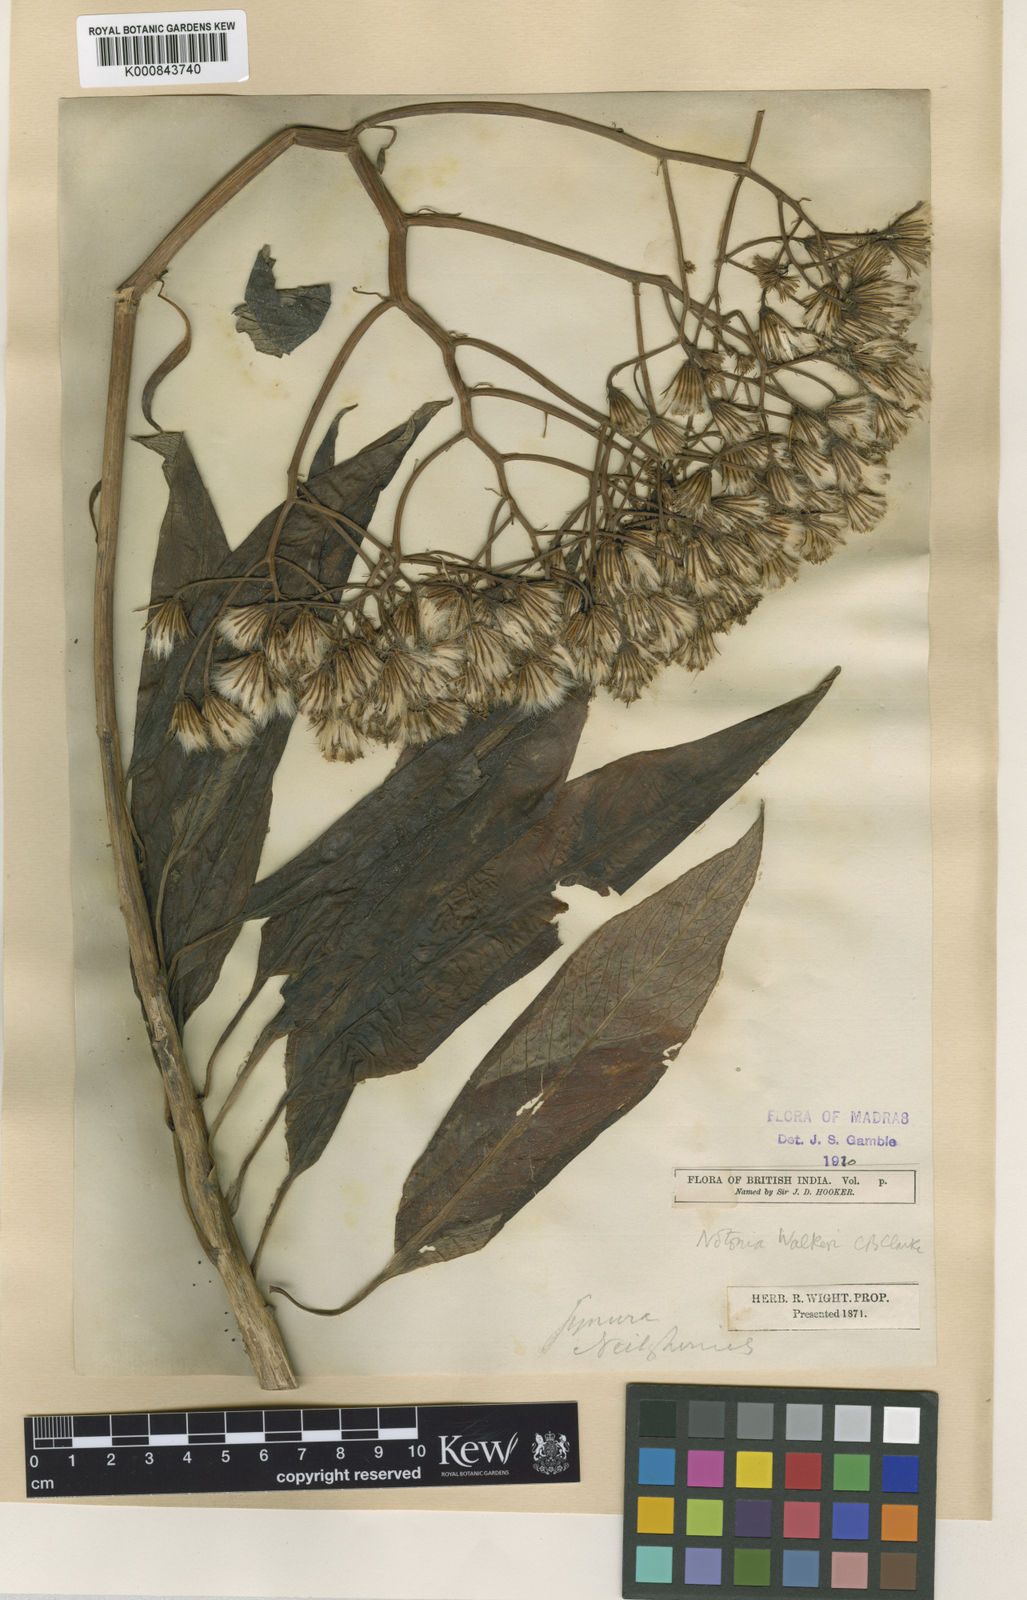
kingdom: Plantae
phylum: Tracheophyta
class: Magnoliopsida
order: Asterales
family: Asteraceae
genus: Kleinia
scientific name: Kleinia
